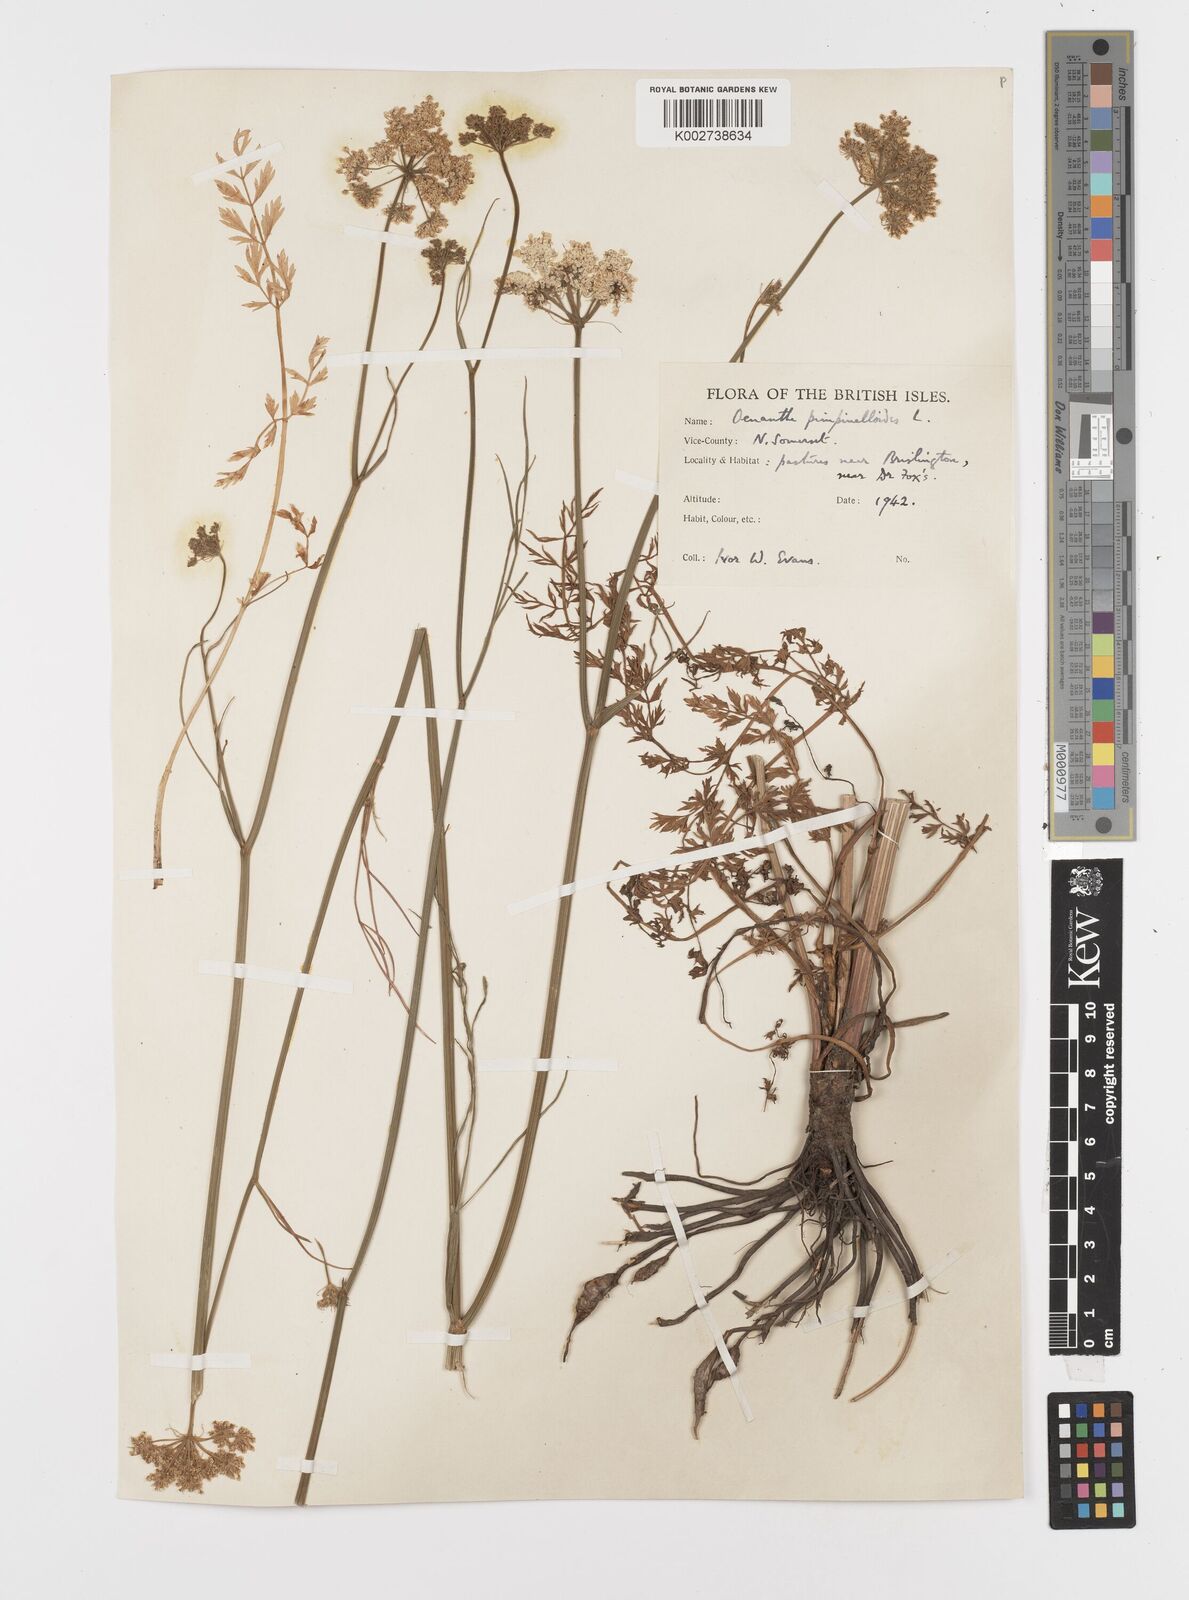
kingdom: Plantae
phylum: Tracheophyta
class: Magnoliopsida
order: Apiales
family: Apiaceae
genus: Oenanthe
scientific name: Oenanthe pimpinelloides
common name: Corky-fruited water-dropwort
